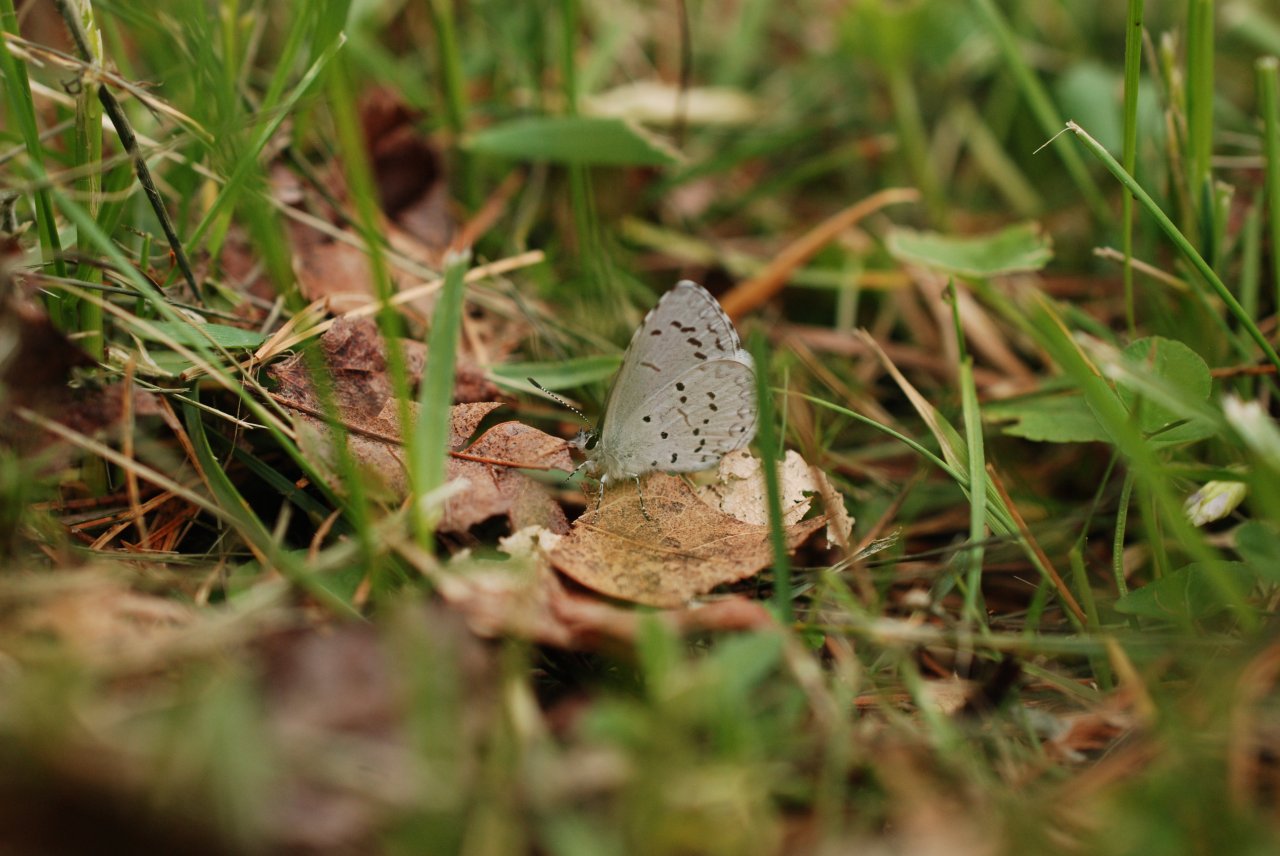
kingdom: Animalia
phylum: Arthropoda
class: Insecta
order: Lepidoptera
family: Lycaenidae
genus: Celastrina
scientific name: Celastrina ladon
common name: Spring Azure
